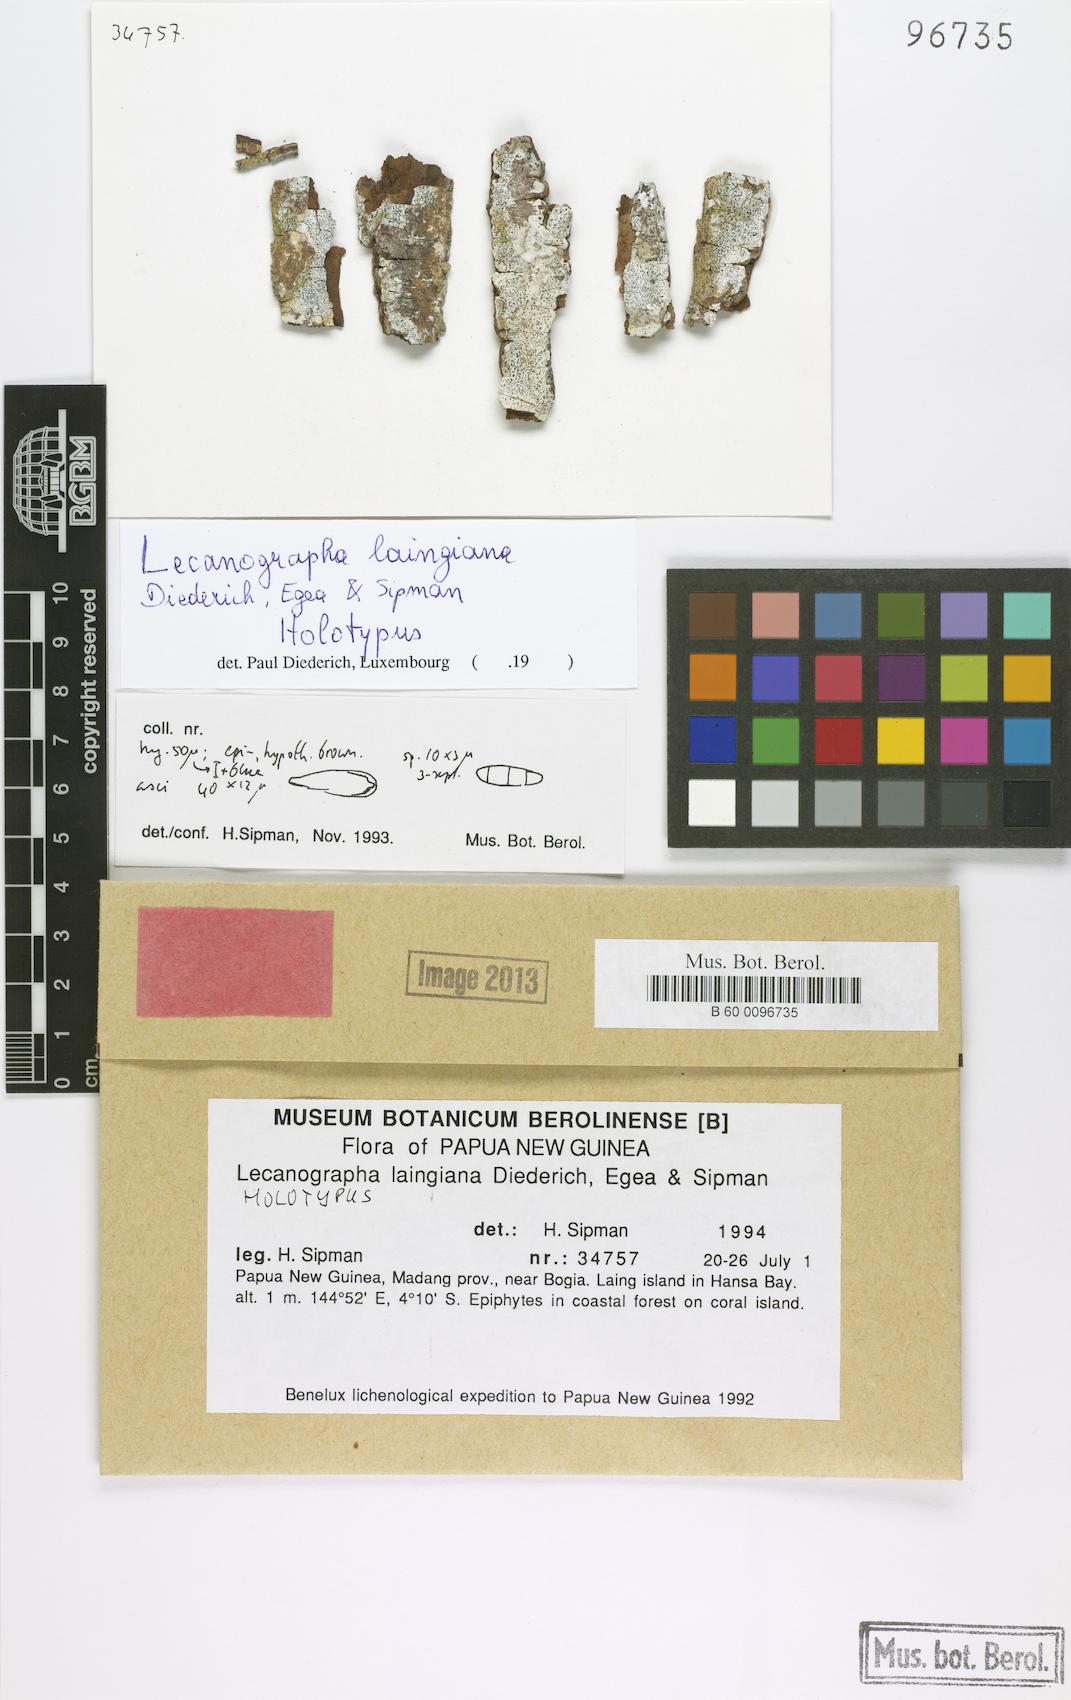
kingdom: Fungi
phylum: Ascomycota
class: Arthoniomycetes
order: Arthoniales
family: Roccellaceae
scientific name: Roccellaceae
